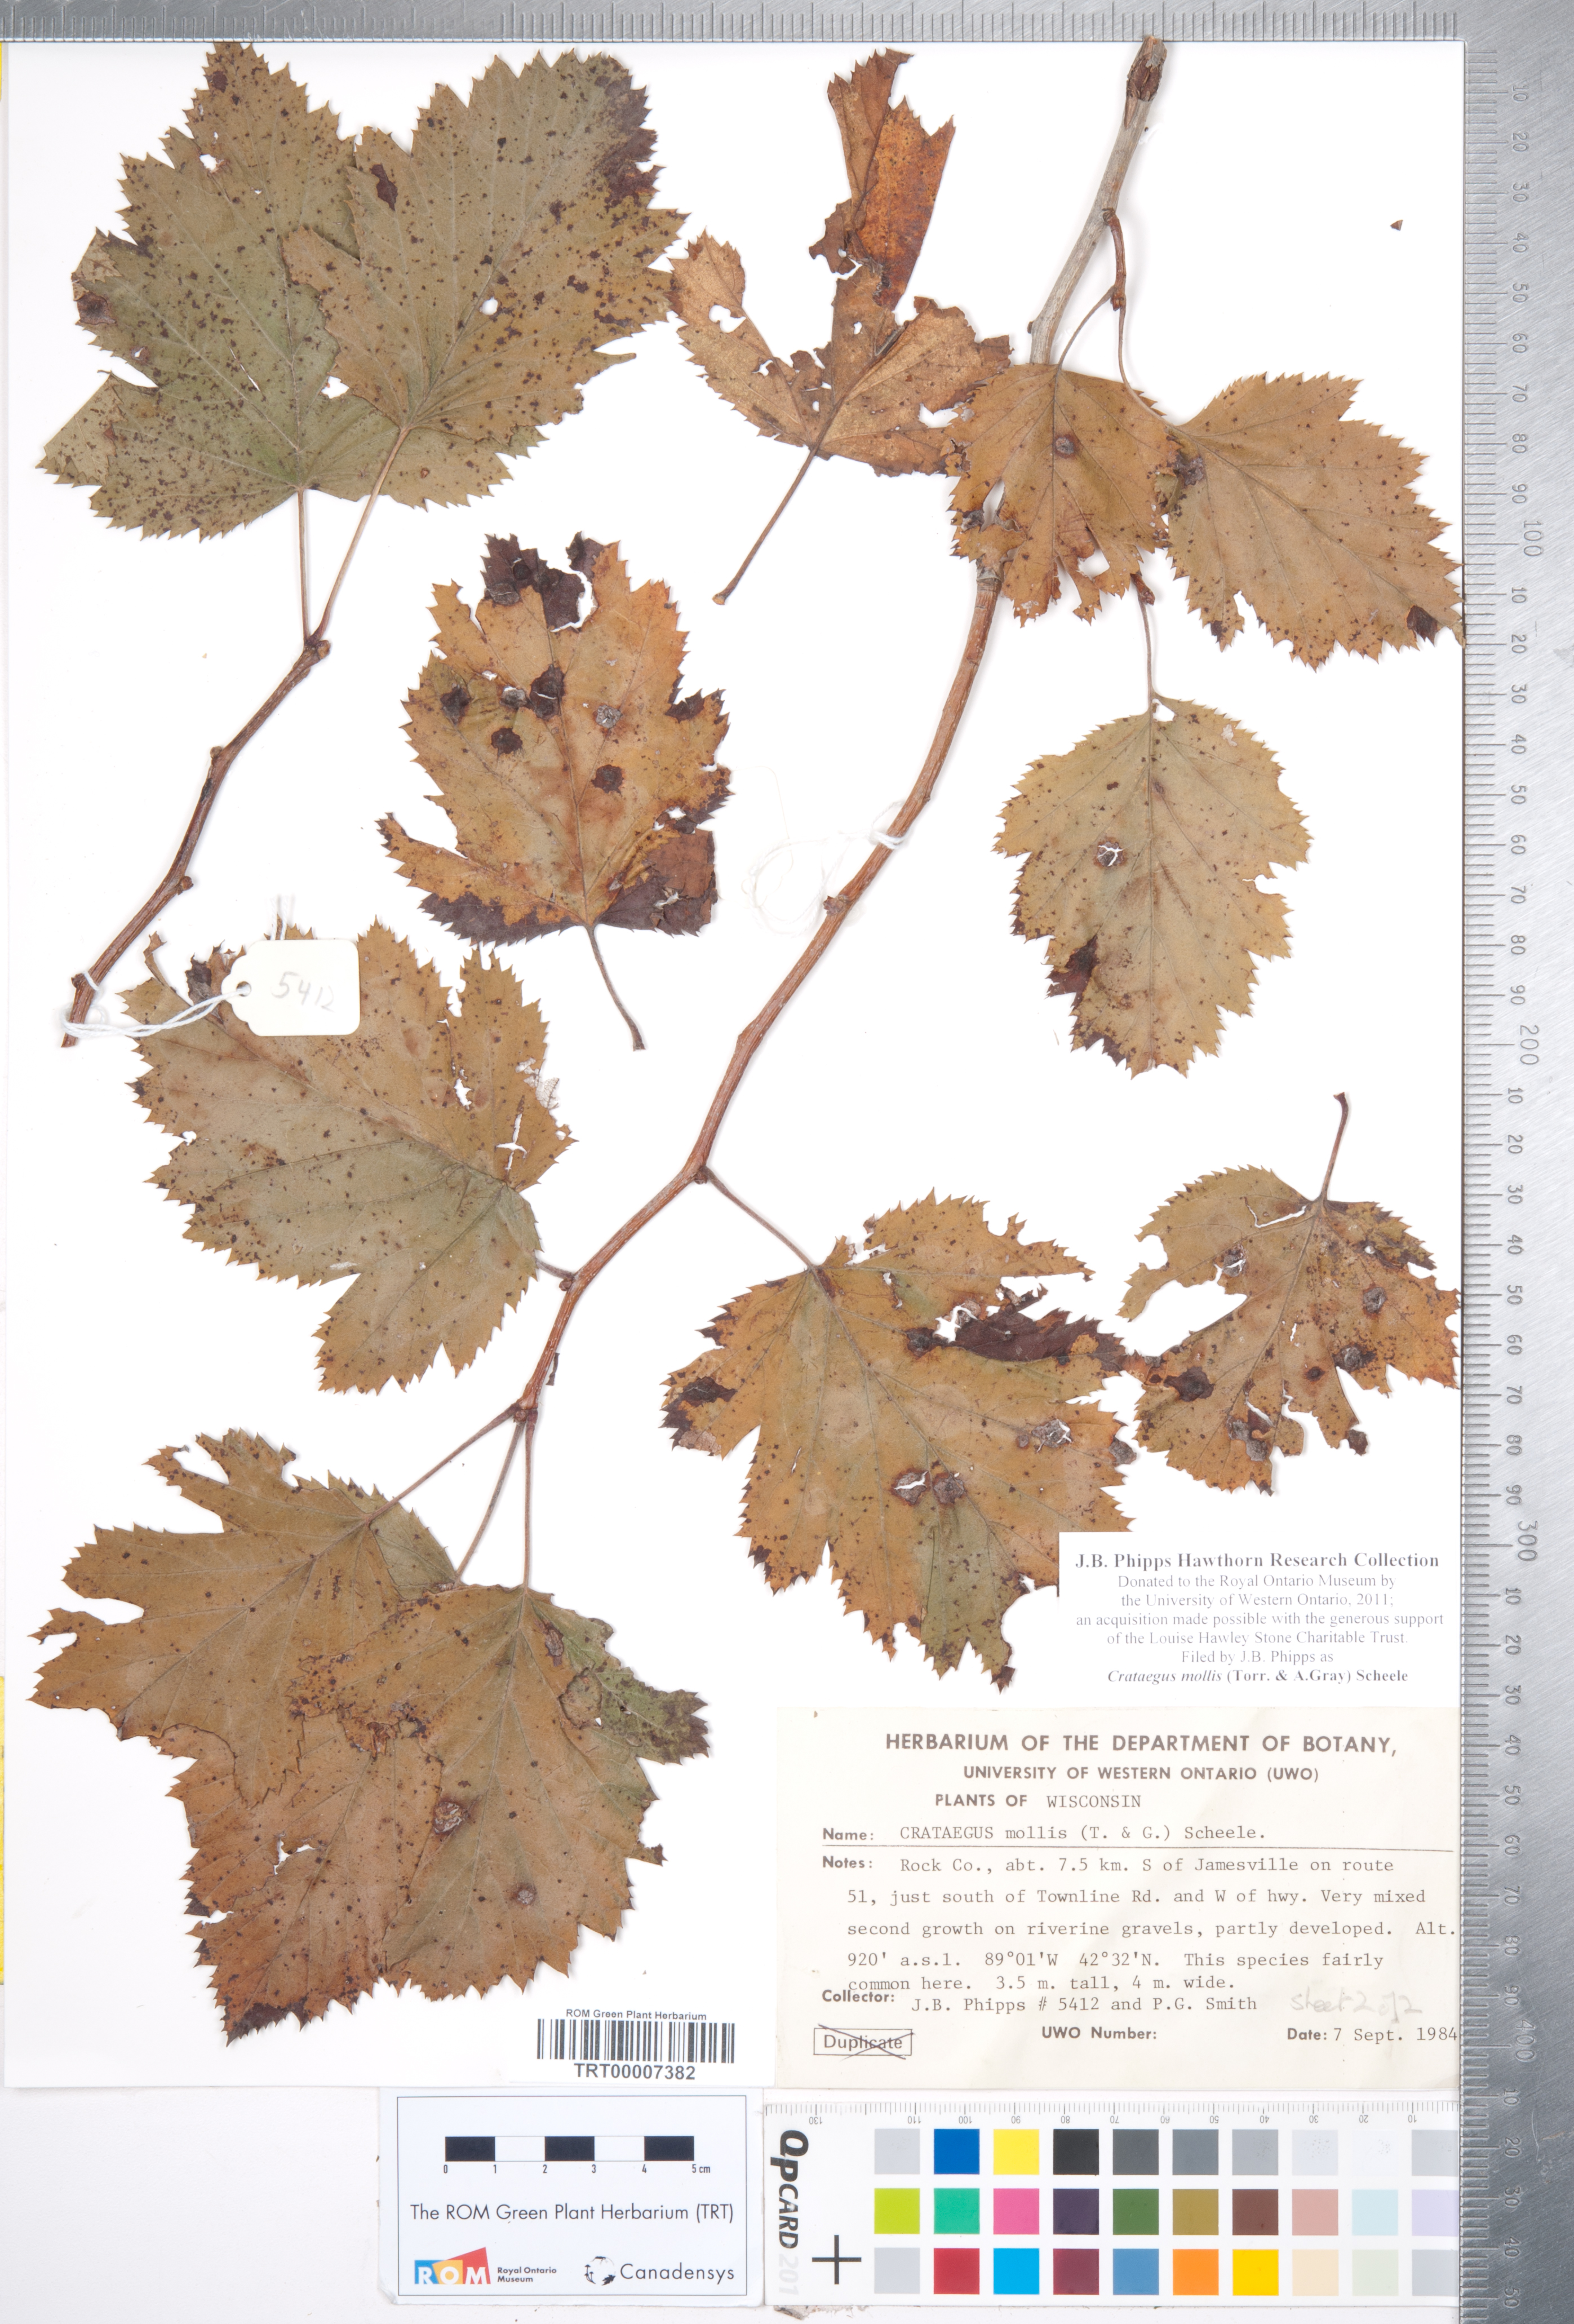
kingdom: Plantae
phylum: Tracheophyta
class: Magnoliopsida
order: Rosales
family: Rosaceae
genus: Crataegus
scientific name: Crataegus mollis
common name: Downy hawthorn
